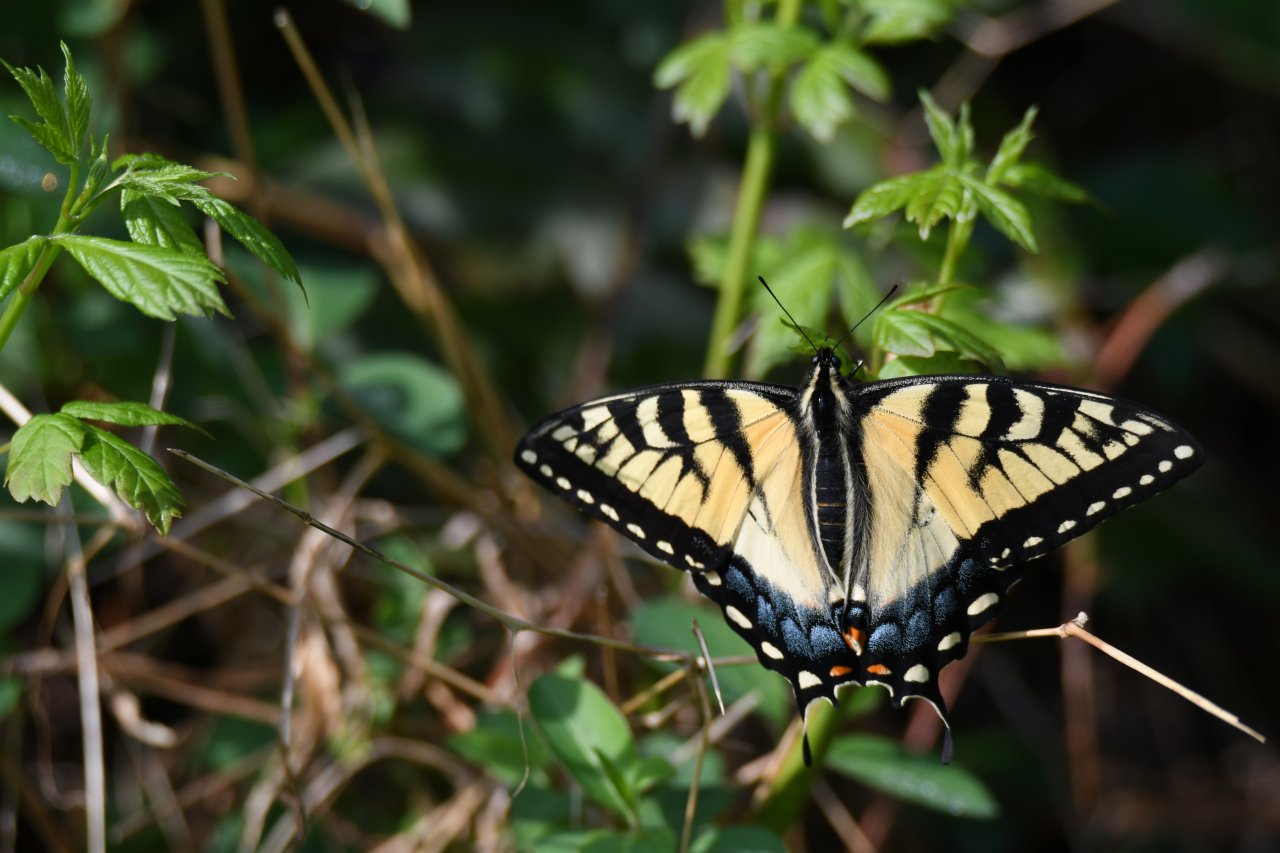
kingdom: Animalia
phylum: Arthropoda
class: Insecta
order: Lepidoptera
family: Papilionidae
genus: Pterourus
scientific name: Pterourus glaucus
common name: Eastern Tiger Swallowtail
